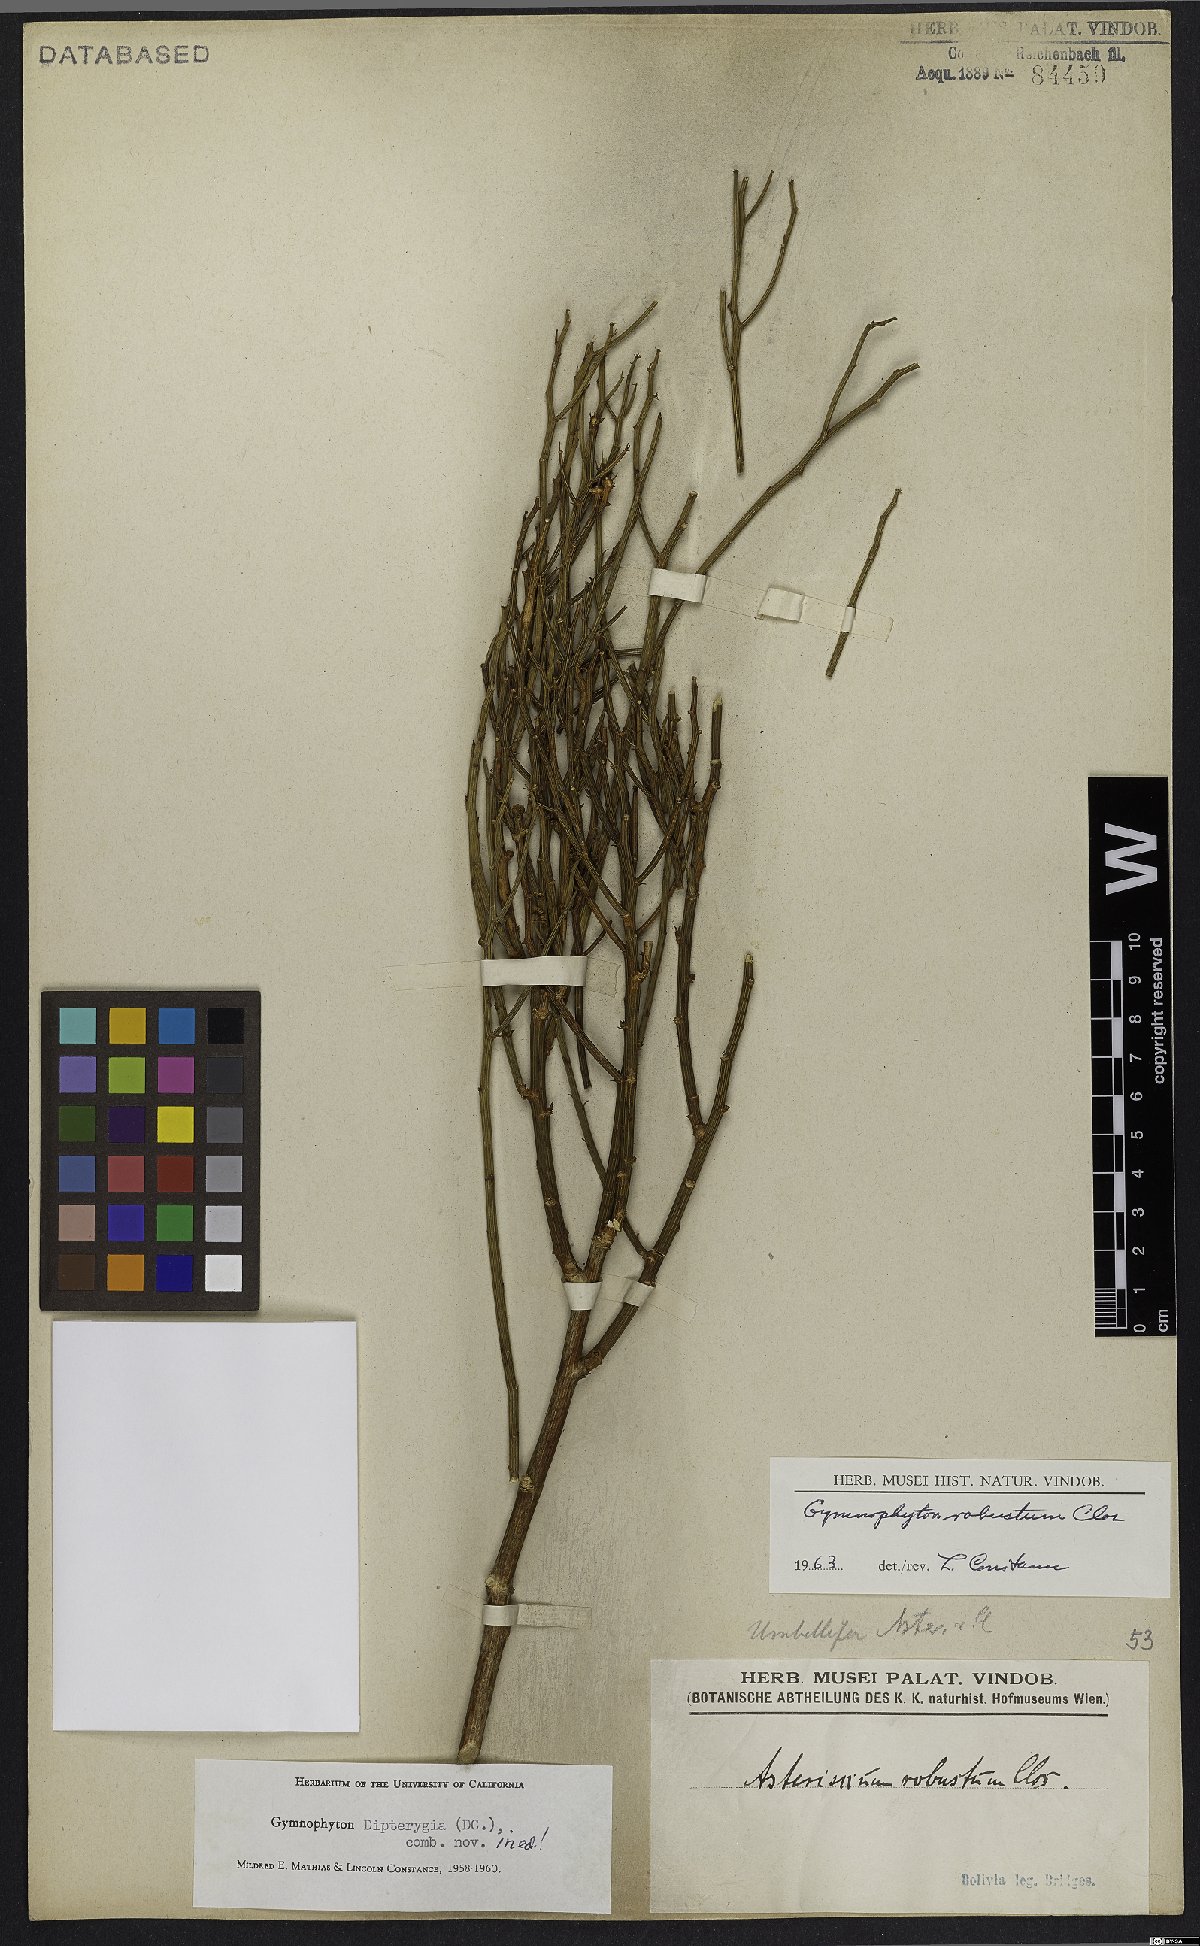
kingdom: Plantae
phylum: Tracheophyta
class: Magnoliopsida
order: Apiales
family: Apiaceae
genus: Gymnophyton
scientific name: Gymnophyton robustum
